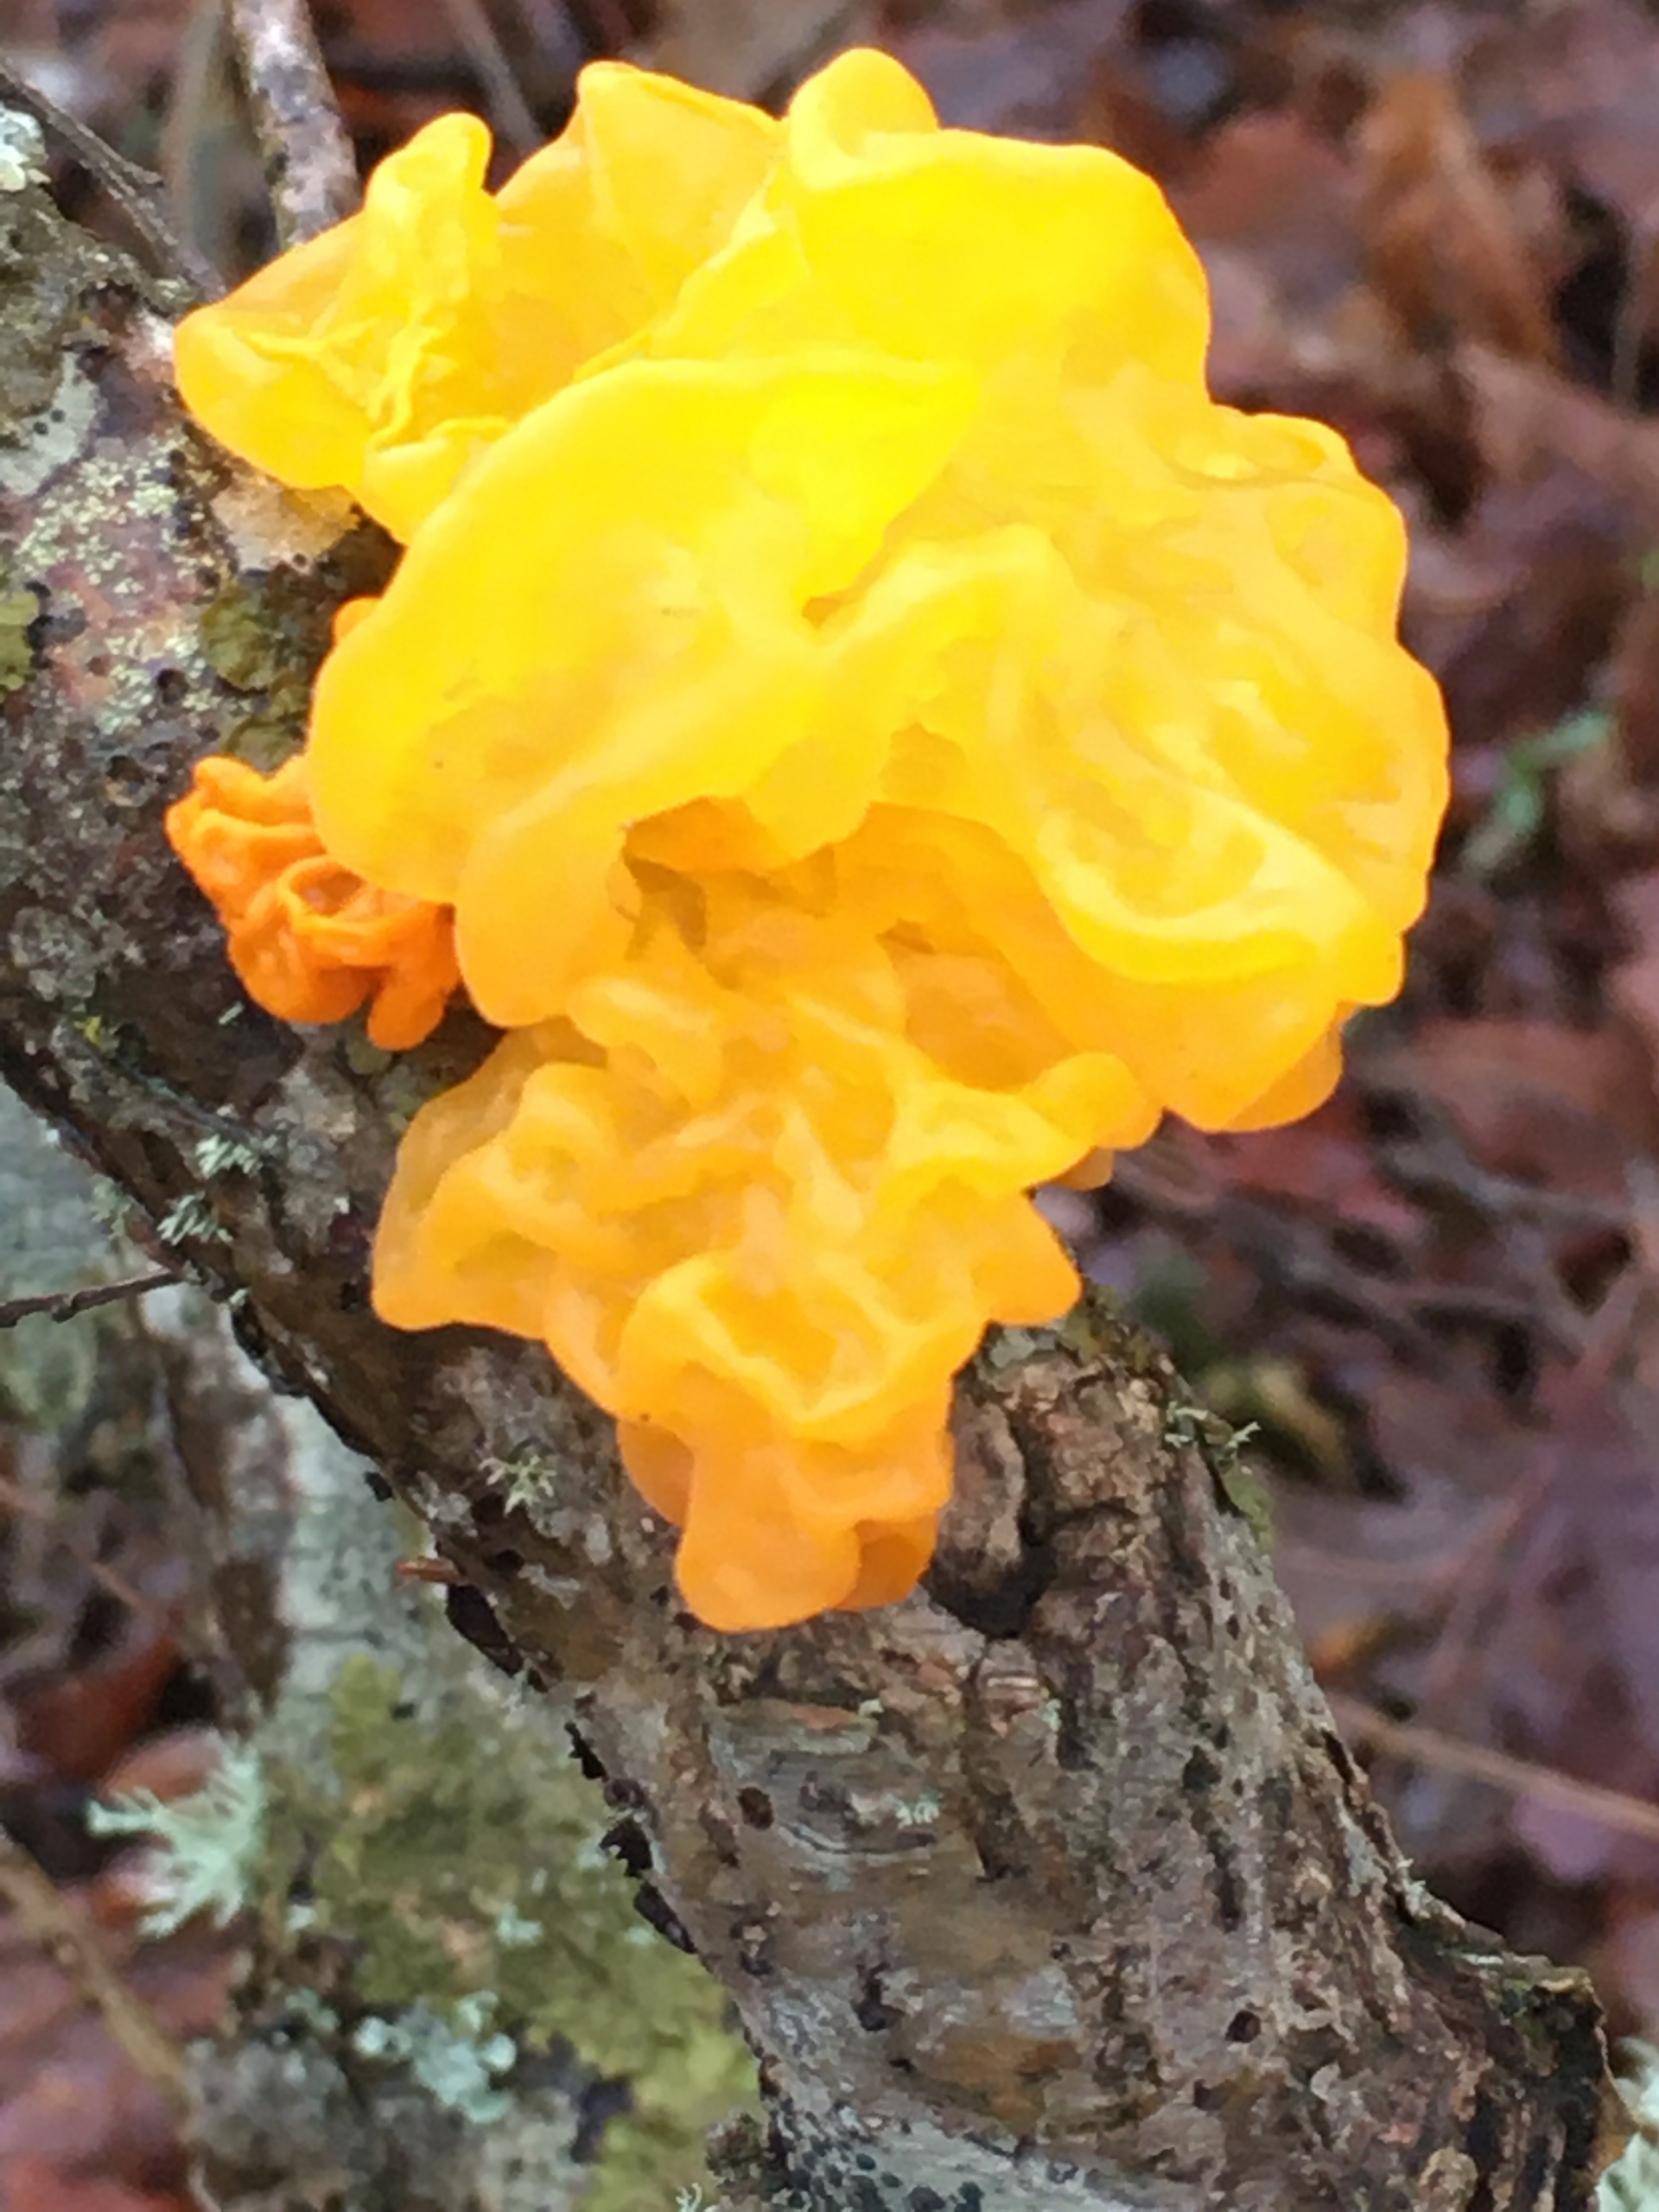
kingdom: Fungi
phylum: Basidiomycota
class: Tremellomycetes
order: Tremellales
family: Tremellaceae
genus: Tremella
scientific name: Tremella mesenterica
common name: Gul bævresvamp
